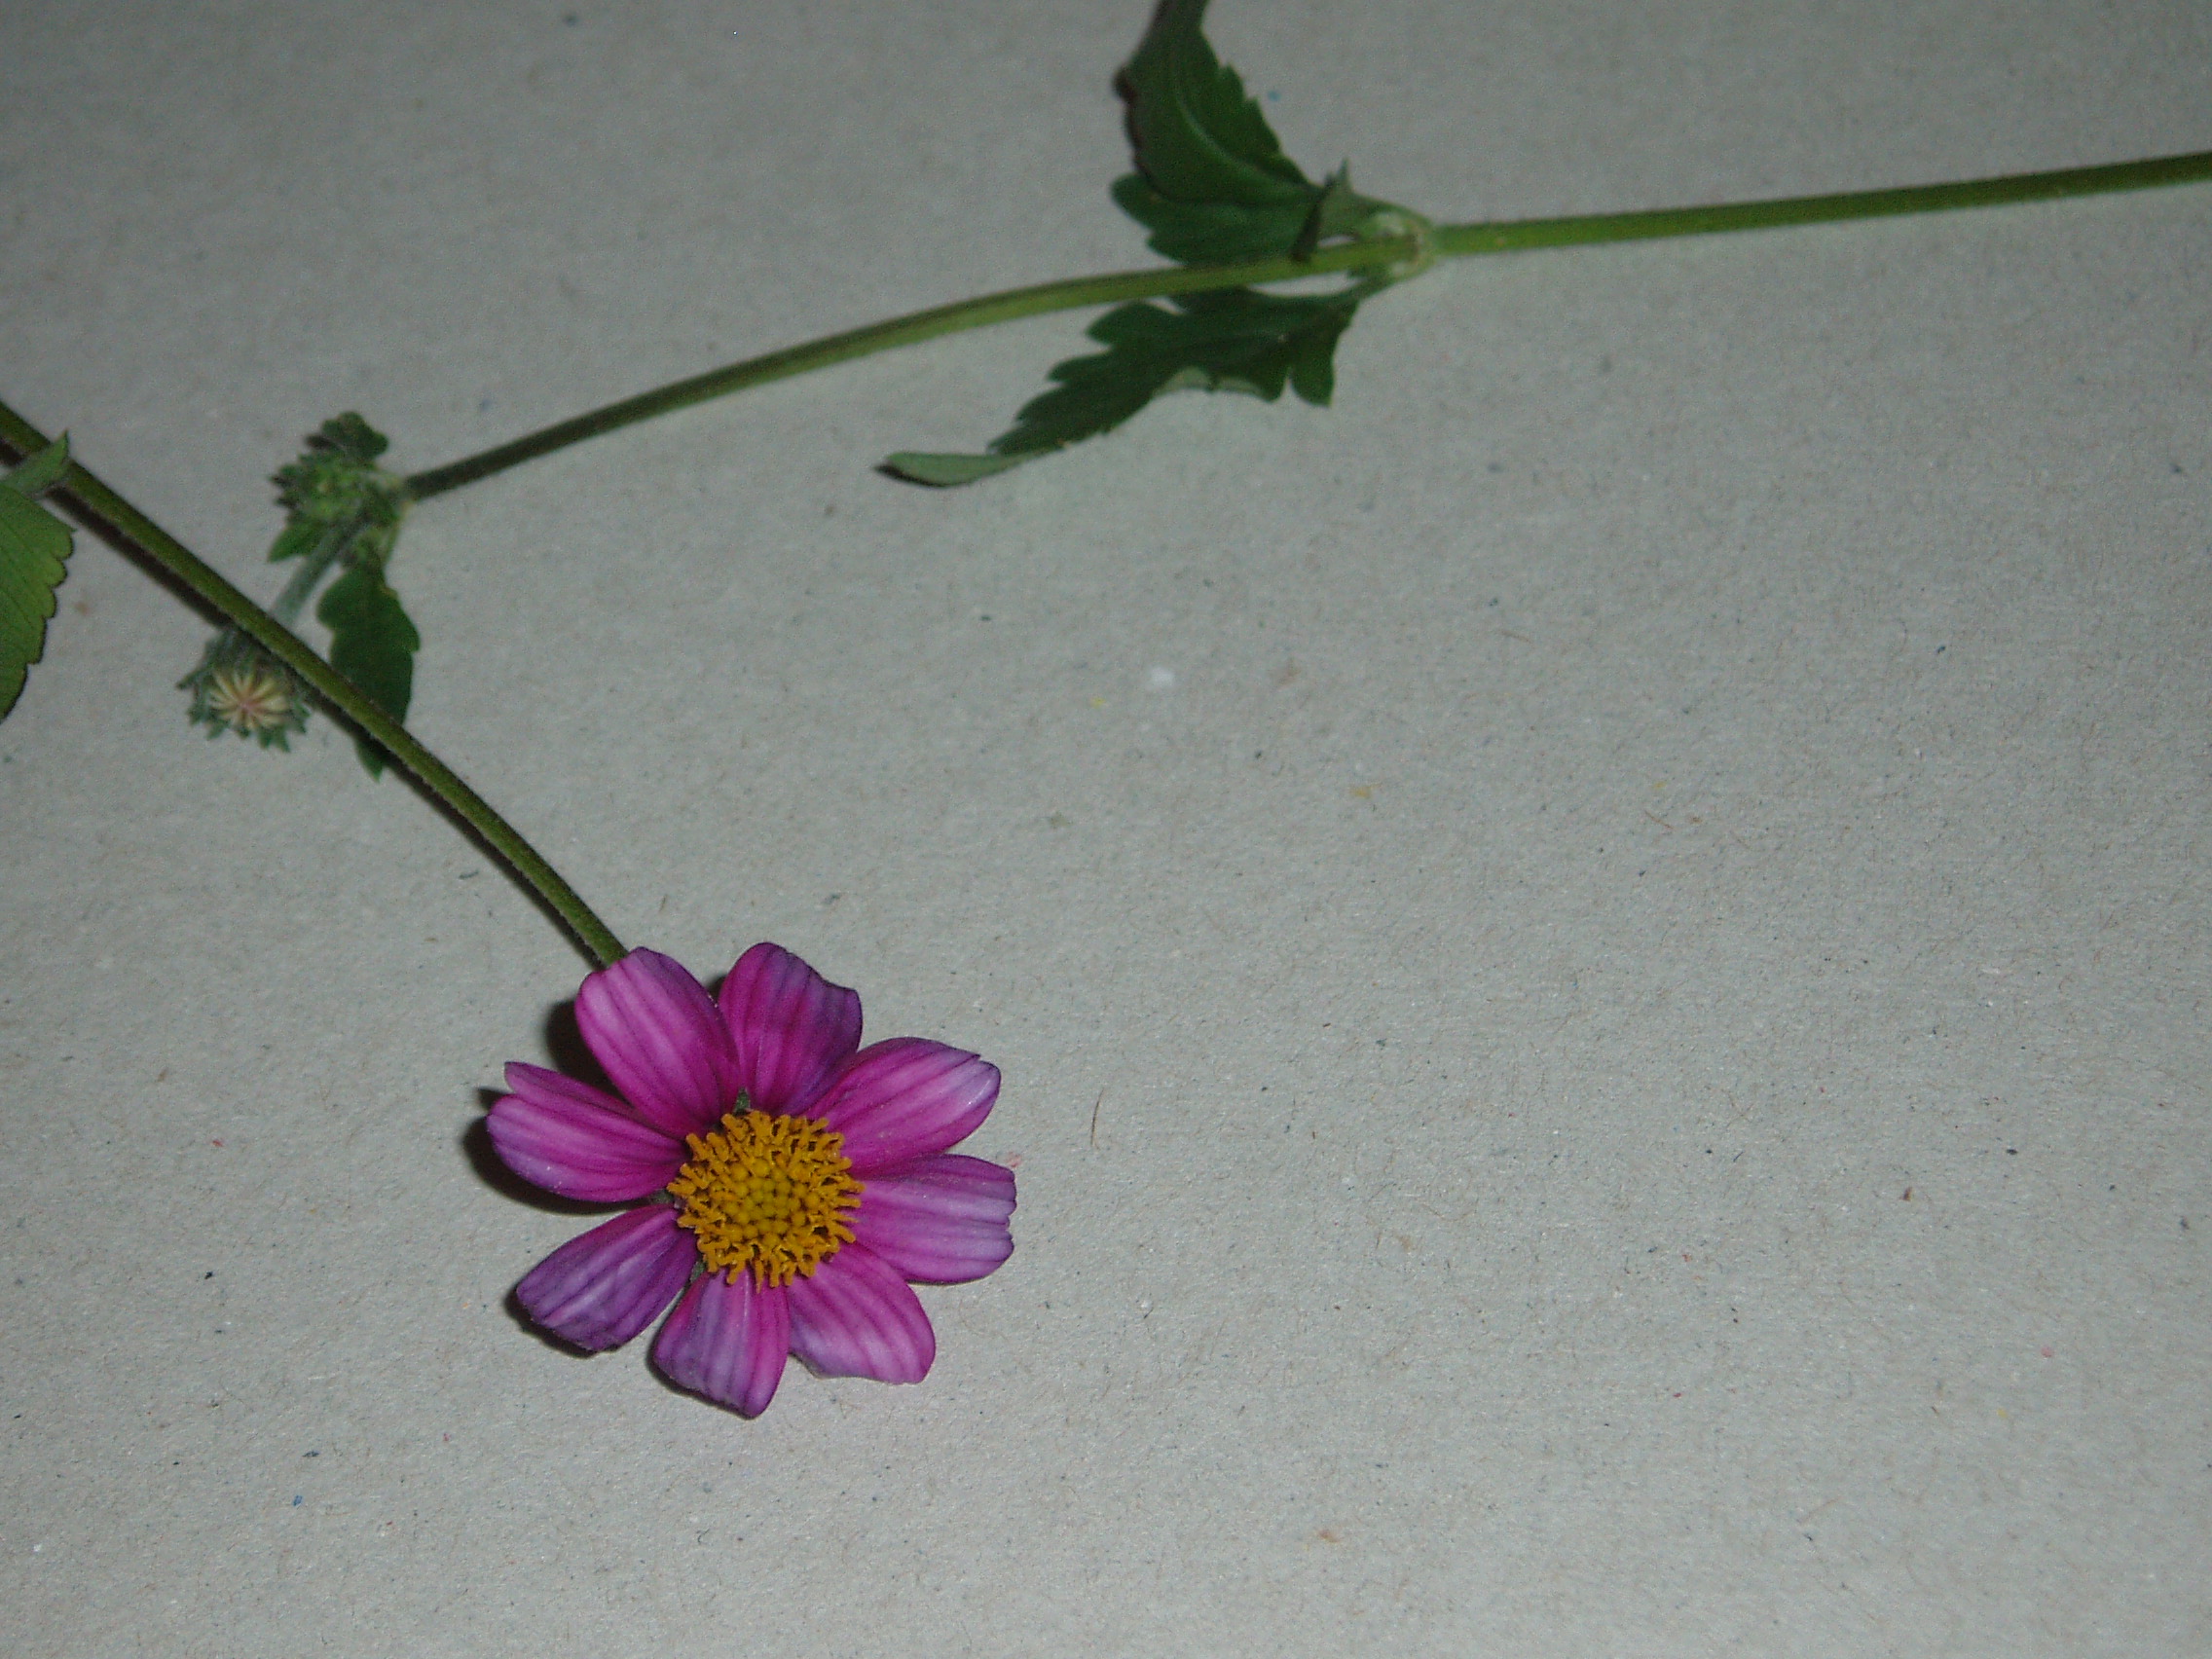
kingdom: Plantae
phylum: Tracheophyta
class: Magnoliopsida
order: Asterales
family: Asteraceae
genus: Cosmos
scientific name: Cosmos
